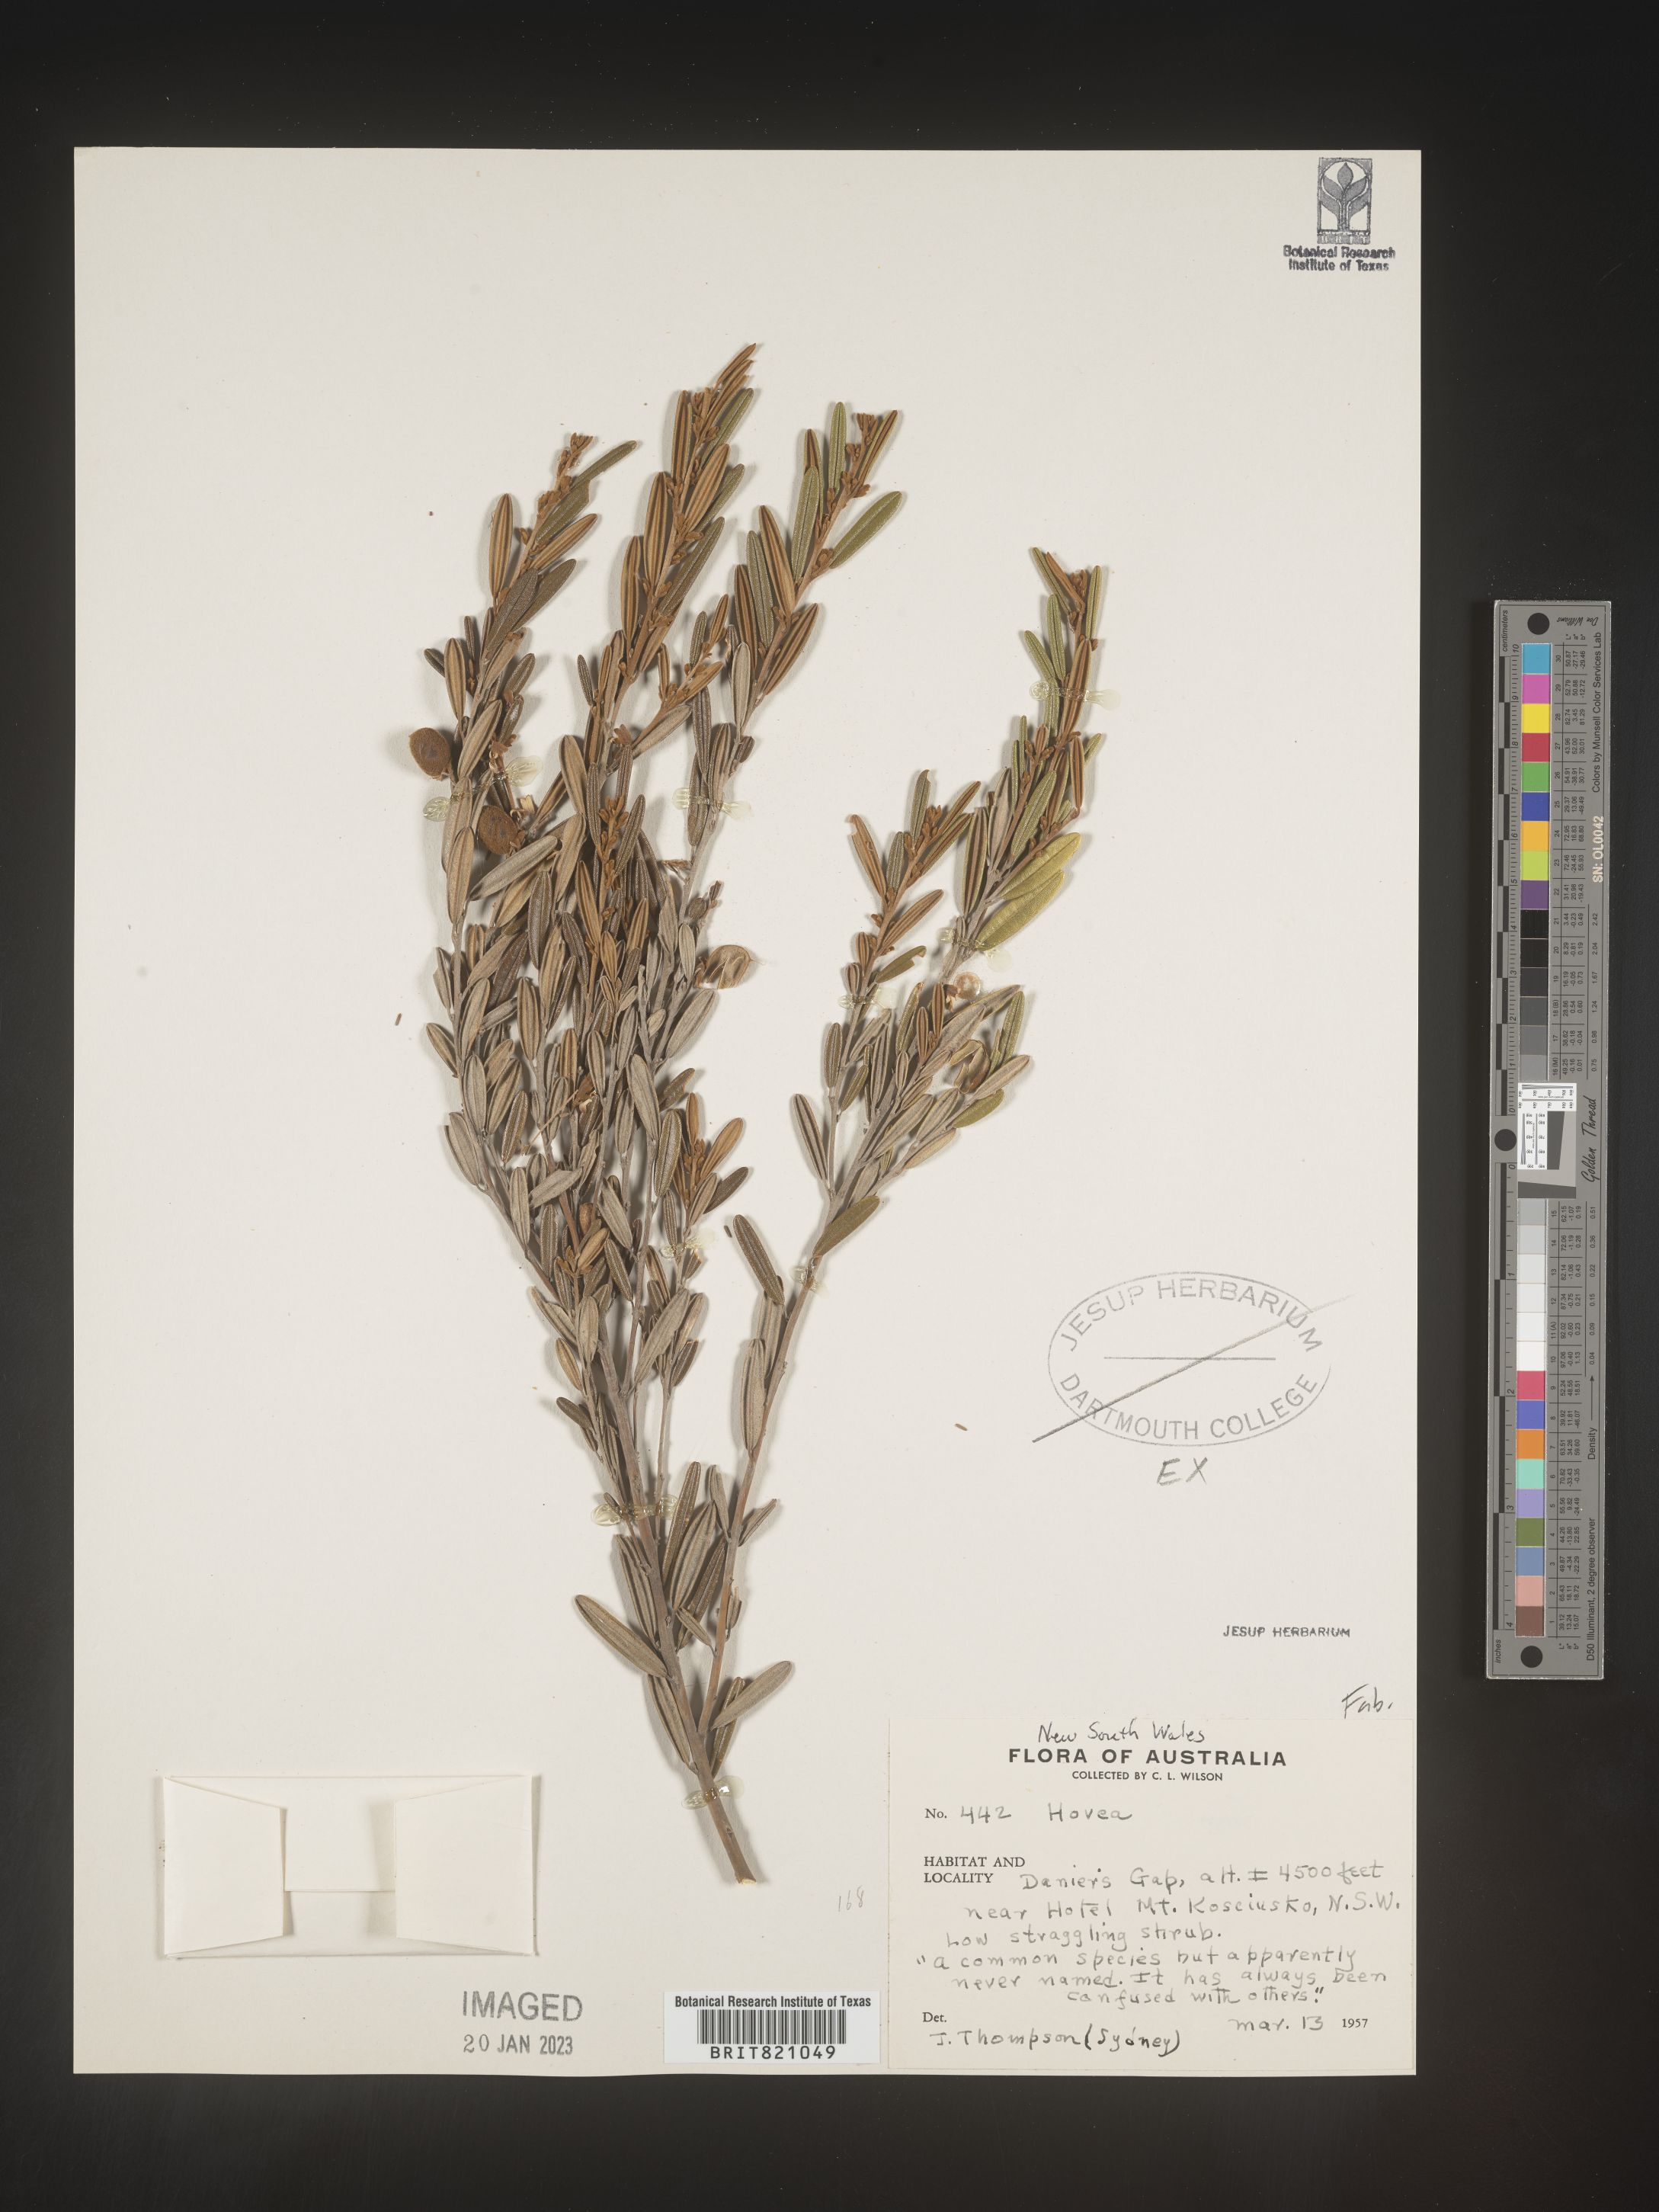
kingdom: Plantae
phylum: Tracheophyta
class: Magnoliopsida
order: Fabales
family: Fabaceae
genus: Hovea
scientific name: Hovea
